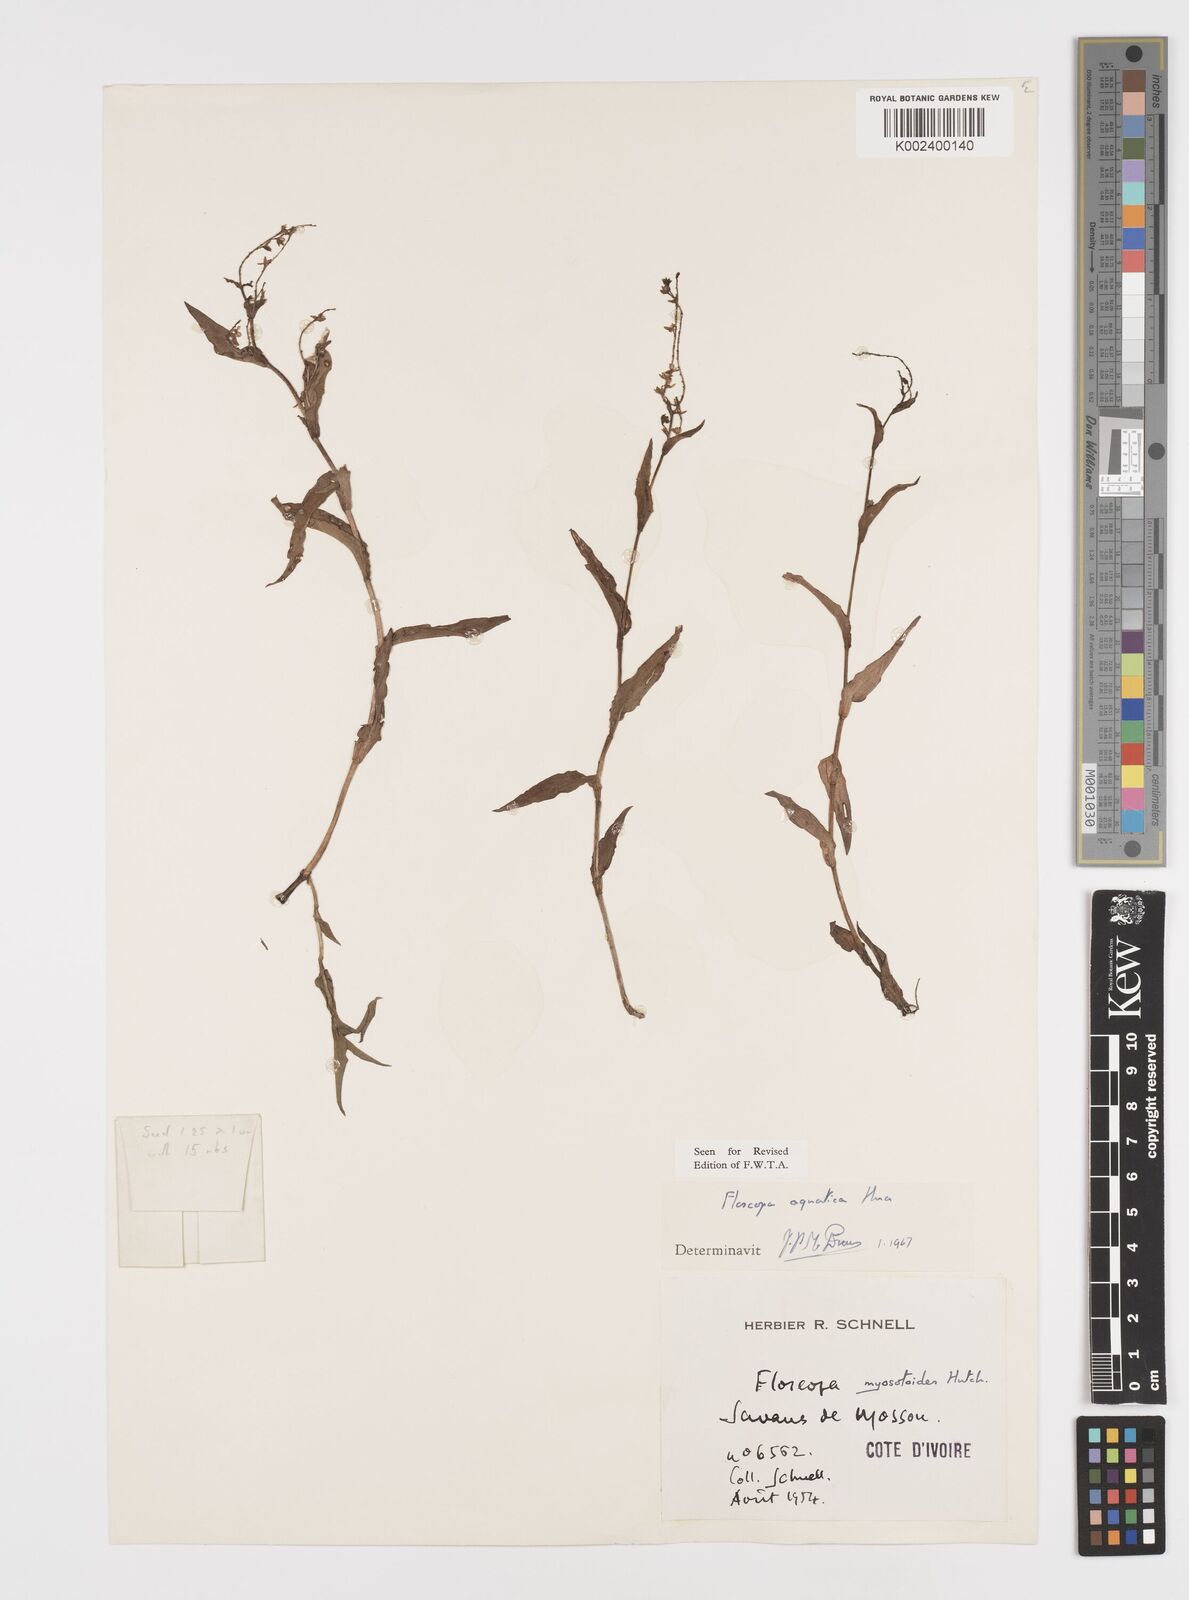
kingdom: Plantae
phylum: Tracheophyta
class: Liliopsida
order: Commelinales
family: Commelinaceae
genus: Floscopa
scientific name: Floscopa aquatica
